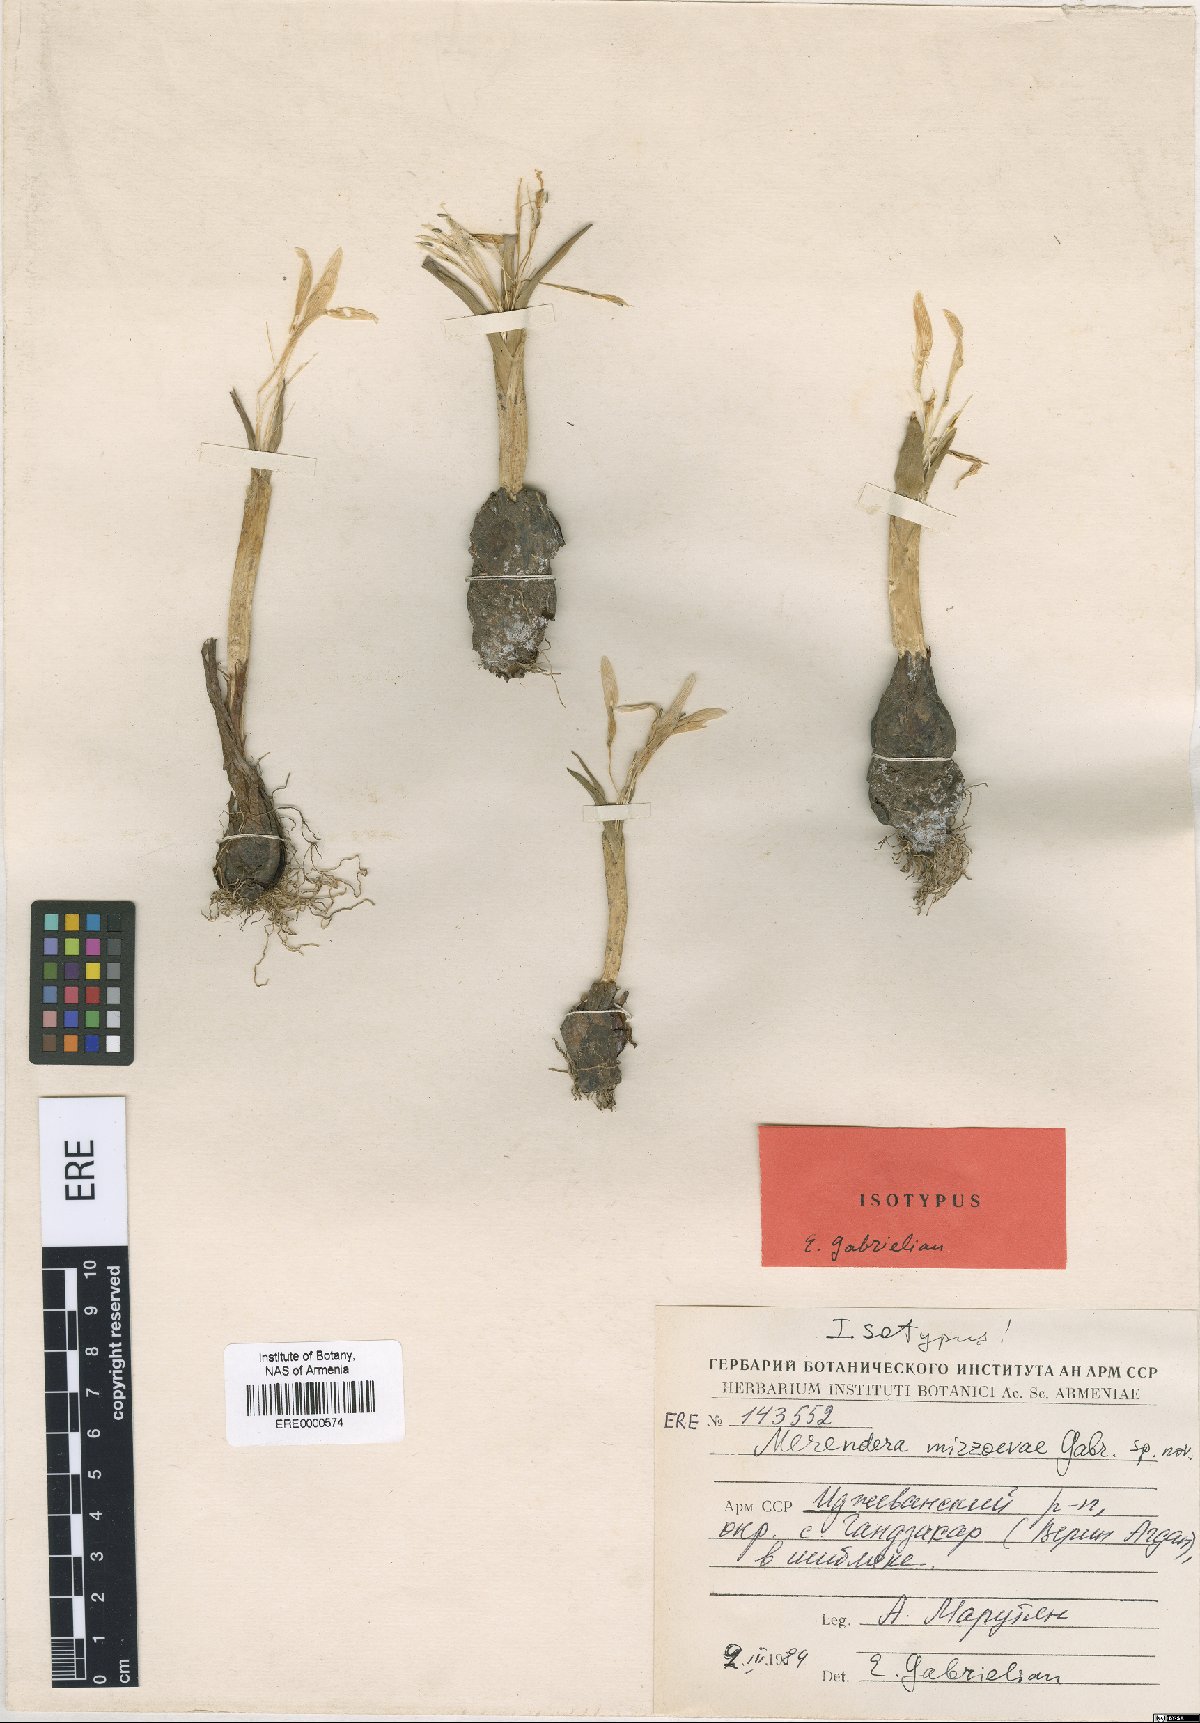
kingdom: Plantae
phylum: Tracheophyta
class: Liliopsida
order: Liliales
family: Colchicaceae
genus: Colchicum
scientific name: Colchicum trigynum
